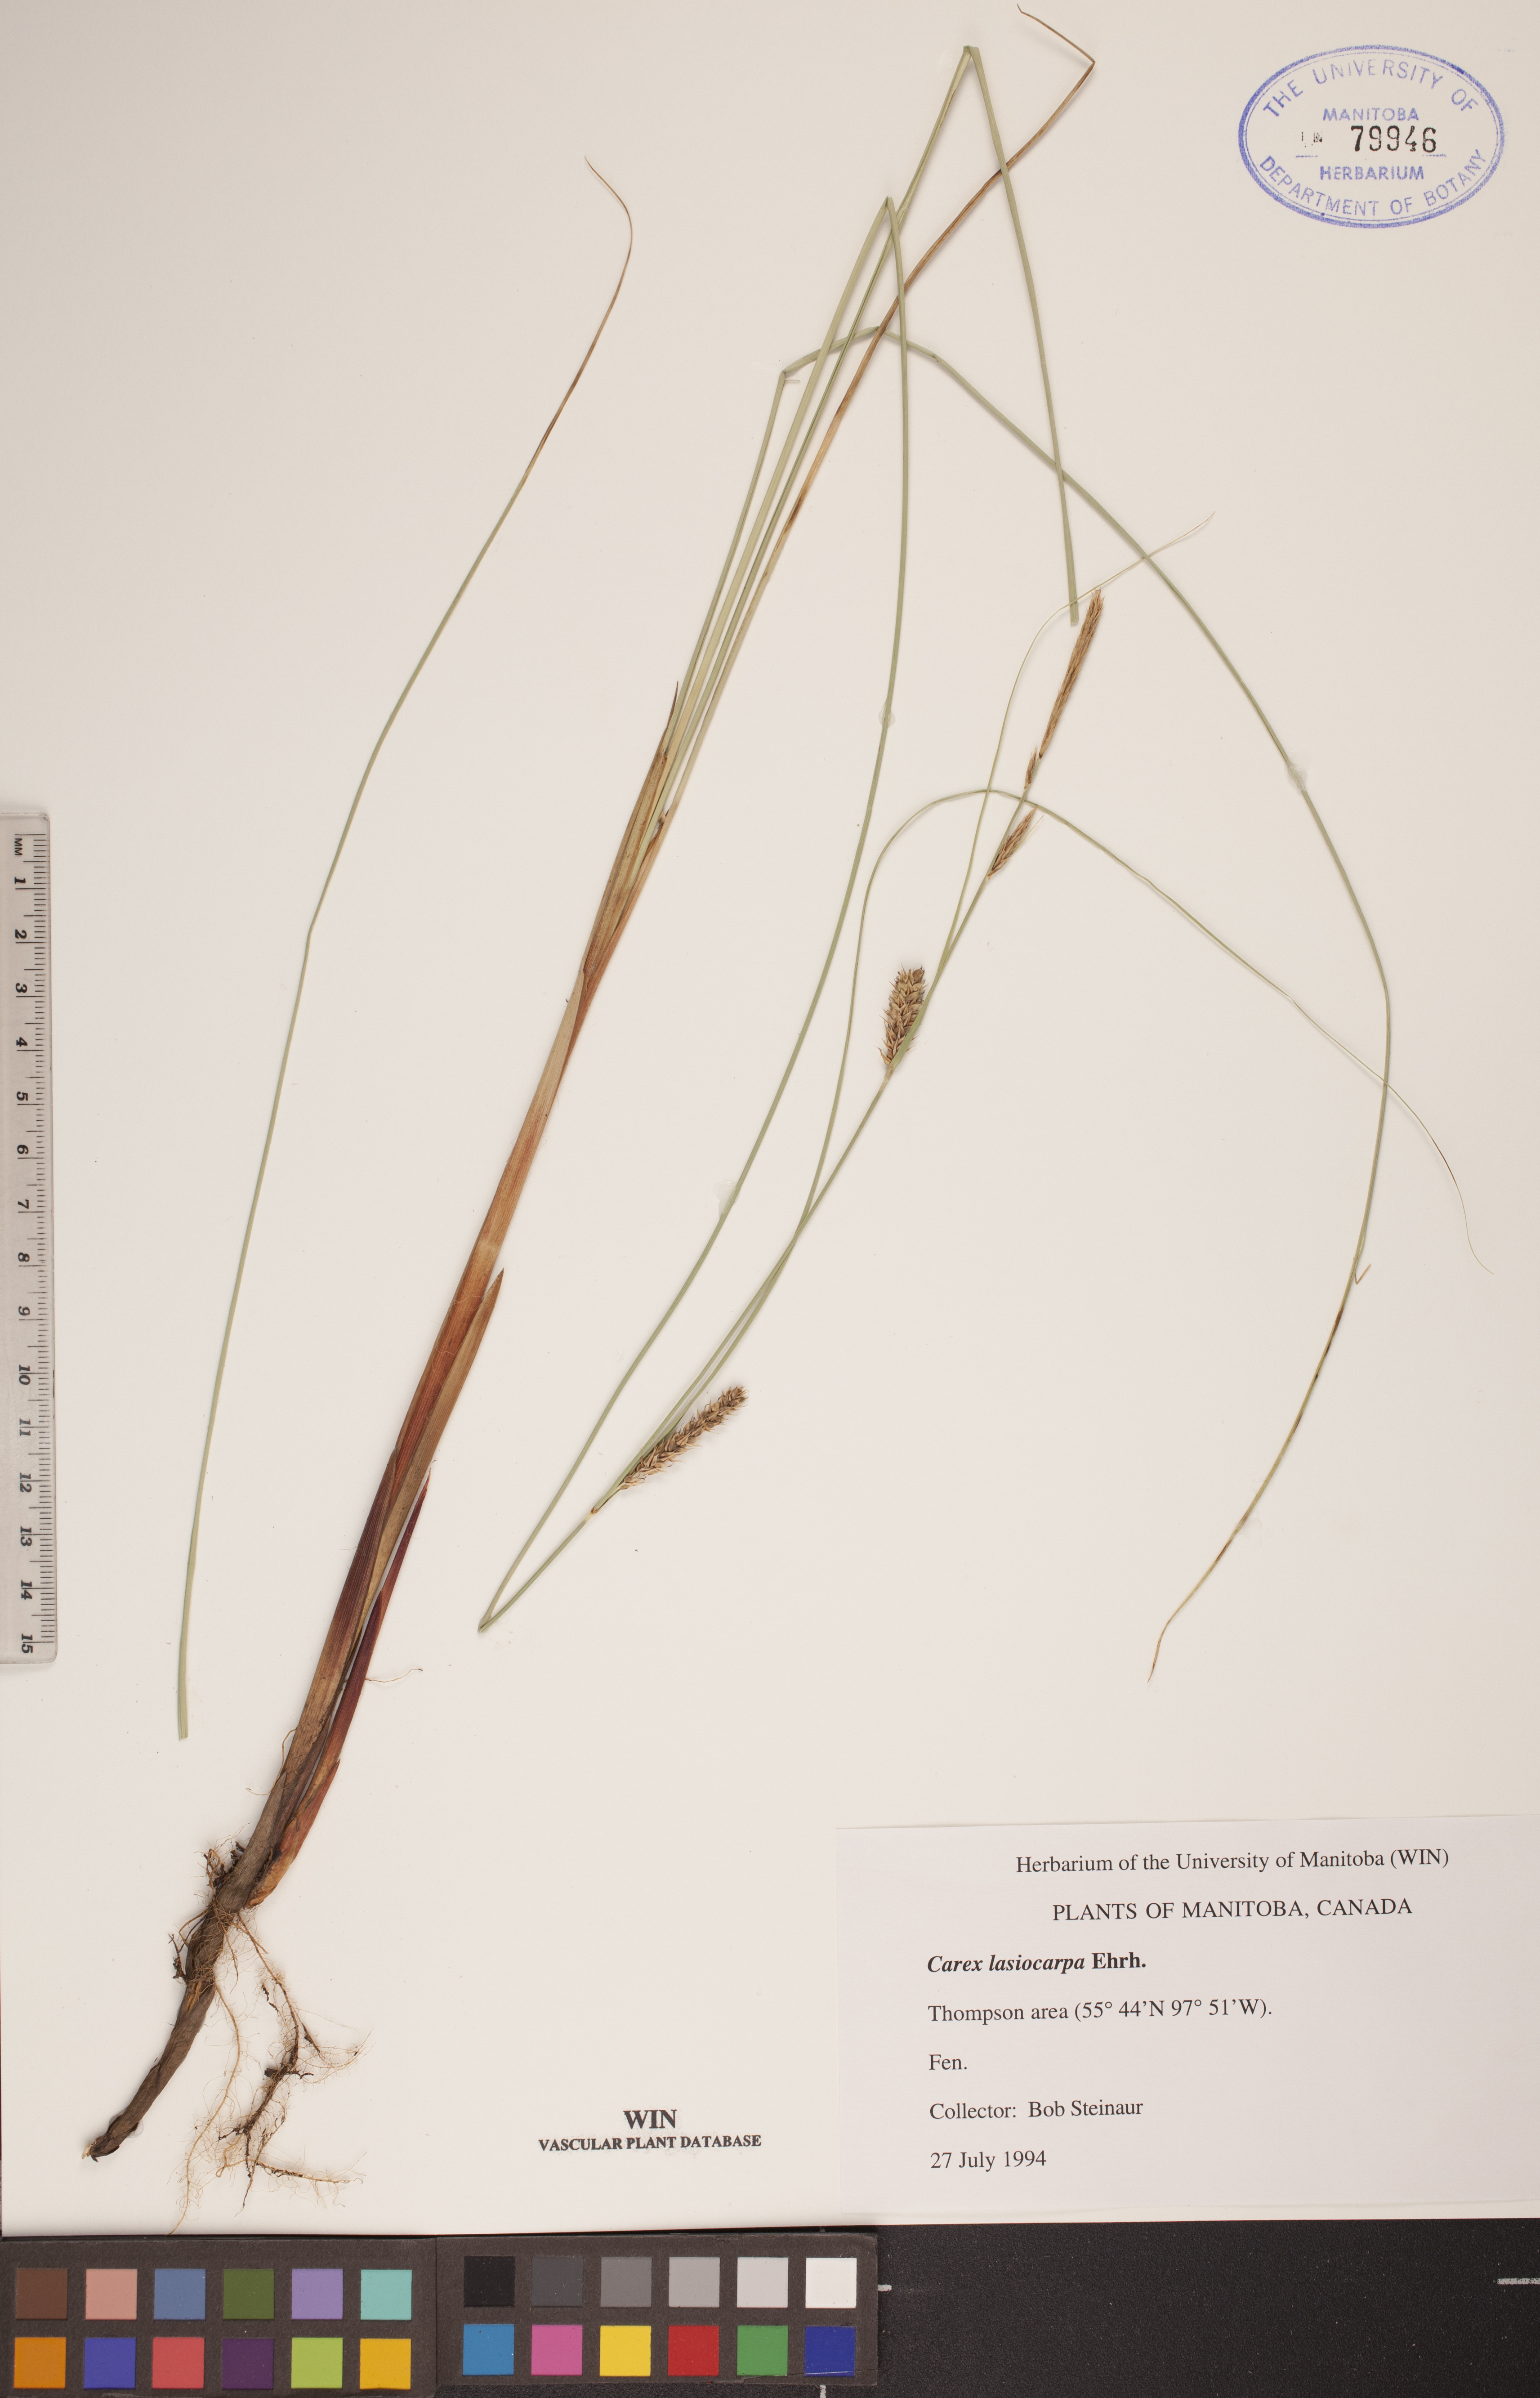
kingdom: Plantae
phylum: Tracheophyta
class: Liliopsida
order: Poales
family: Cyperaceae
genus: Carex
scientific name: Carex lasiocarpa
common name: Slender sedge
